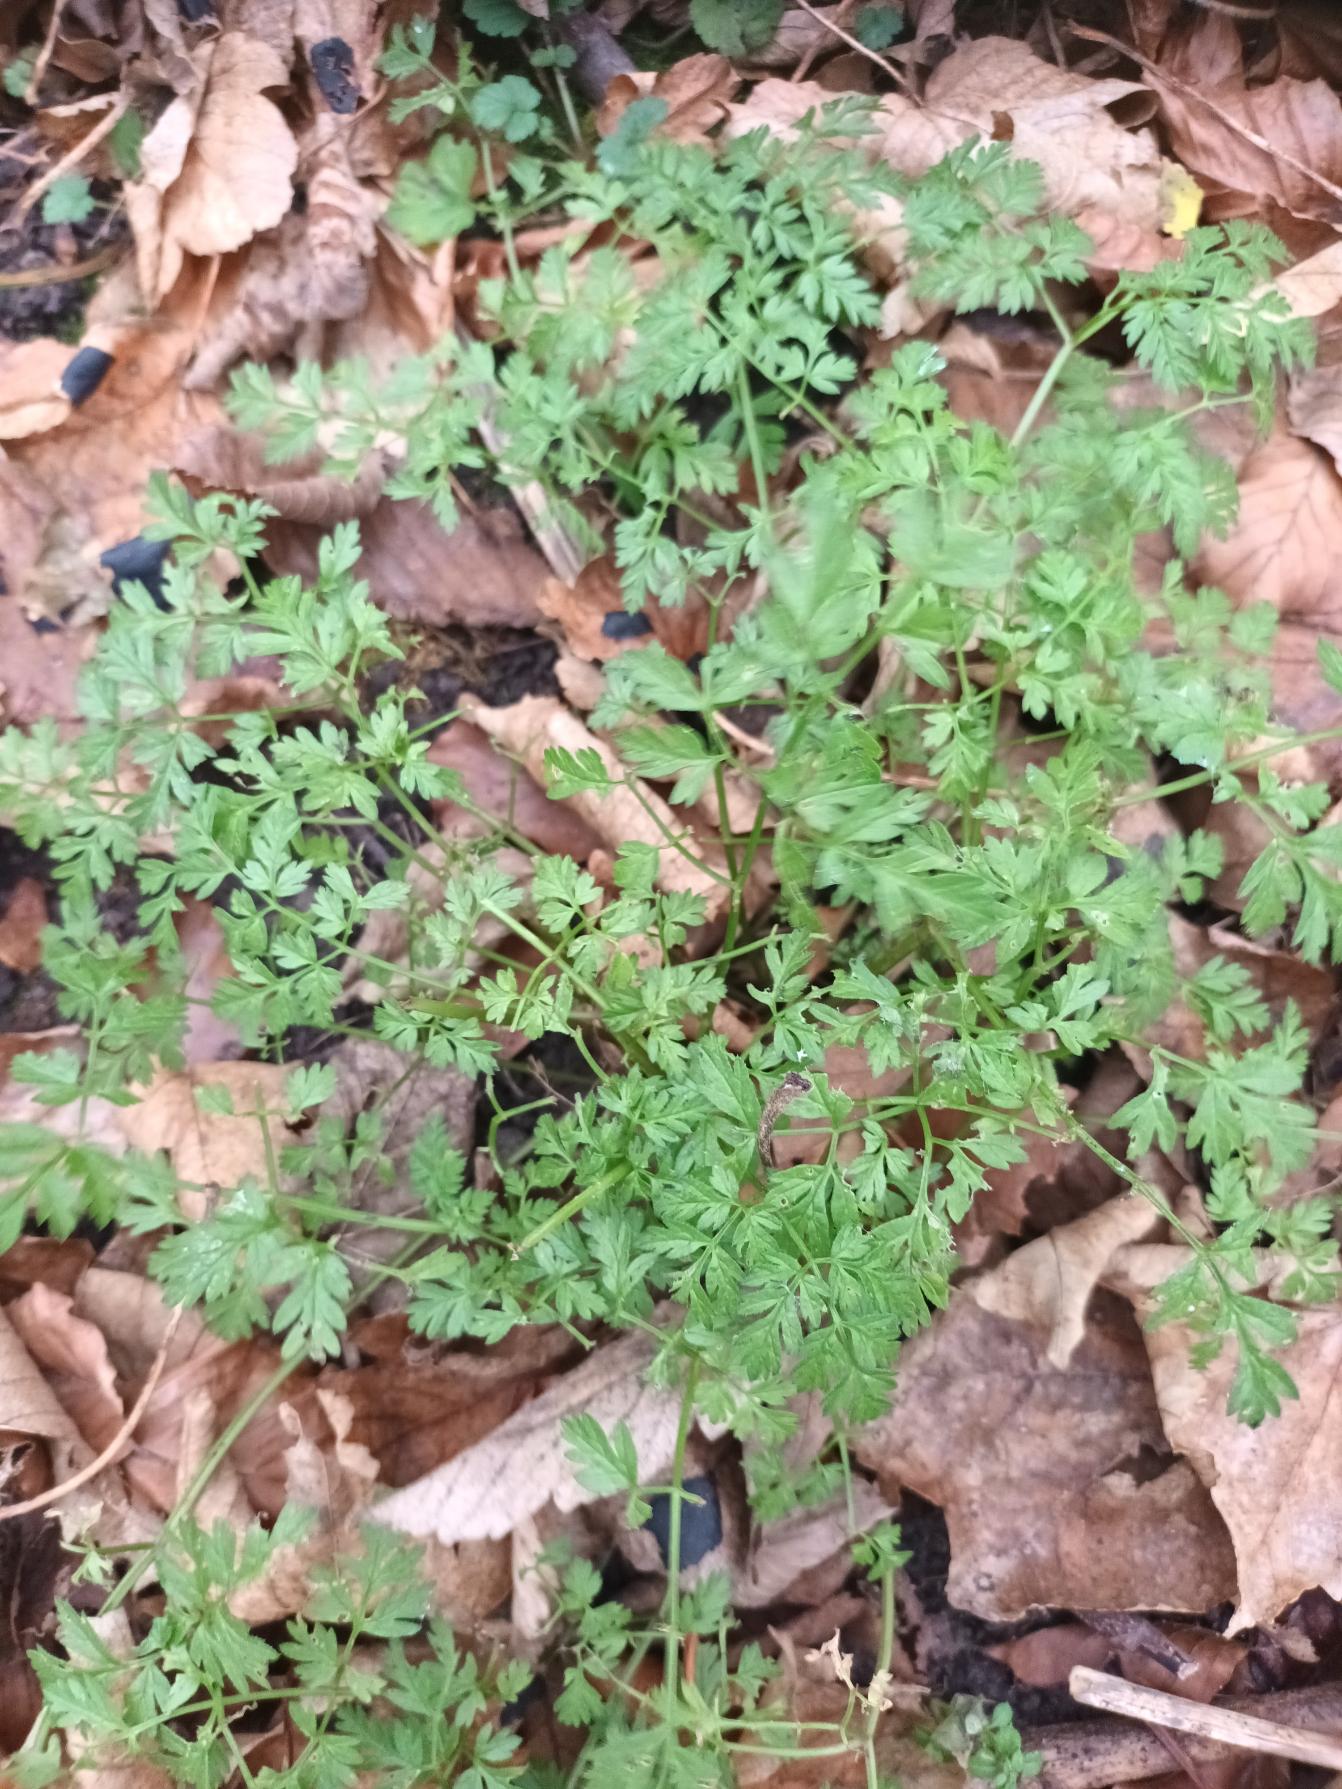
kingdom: Plantae
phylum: Tracheophyta
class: Magnoliopsida
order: Apiales
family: Apiaceae
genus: Anthriscus
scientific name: Anthriscus sylvestris
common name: Vild kørvel
